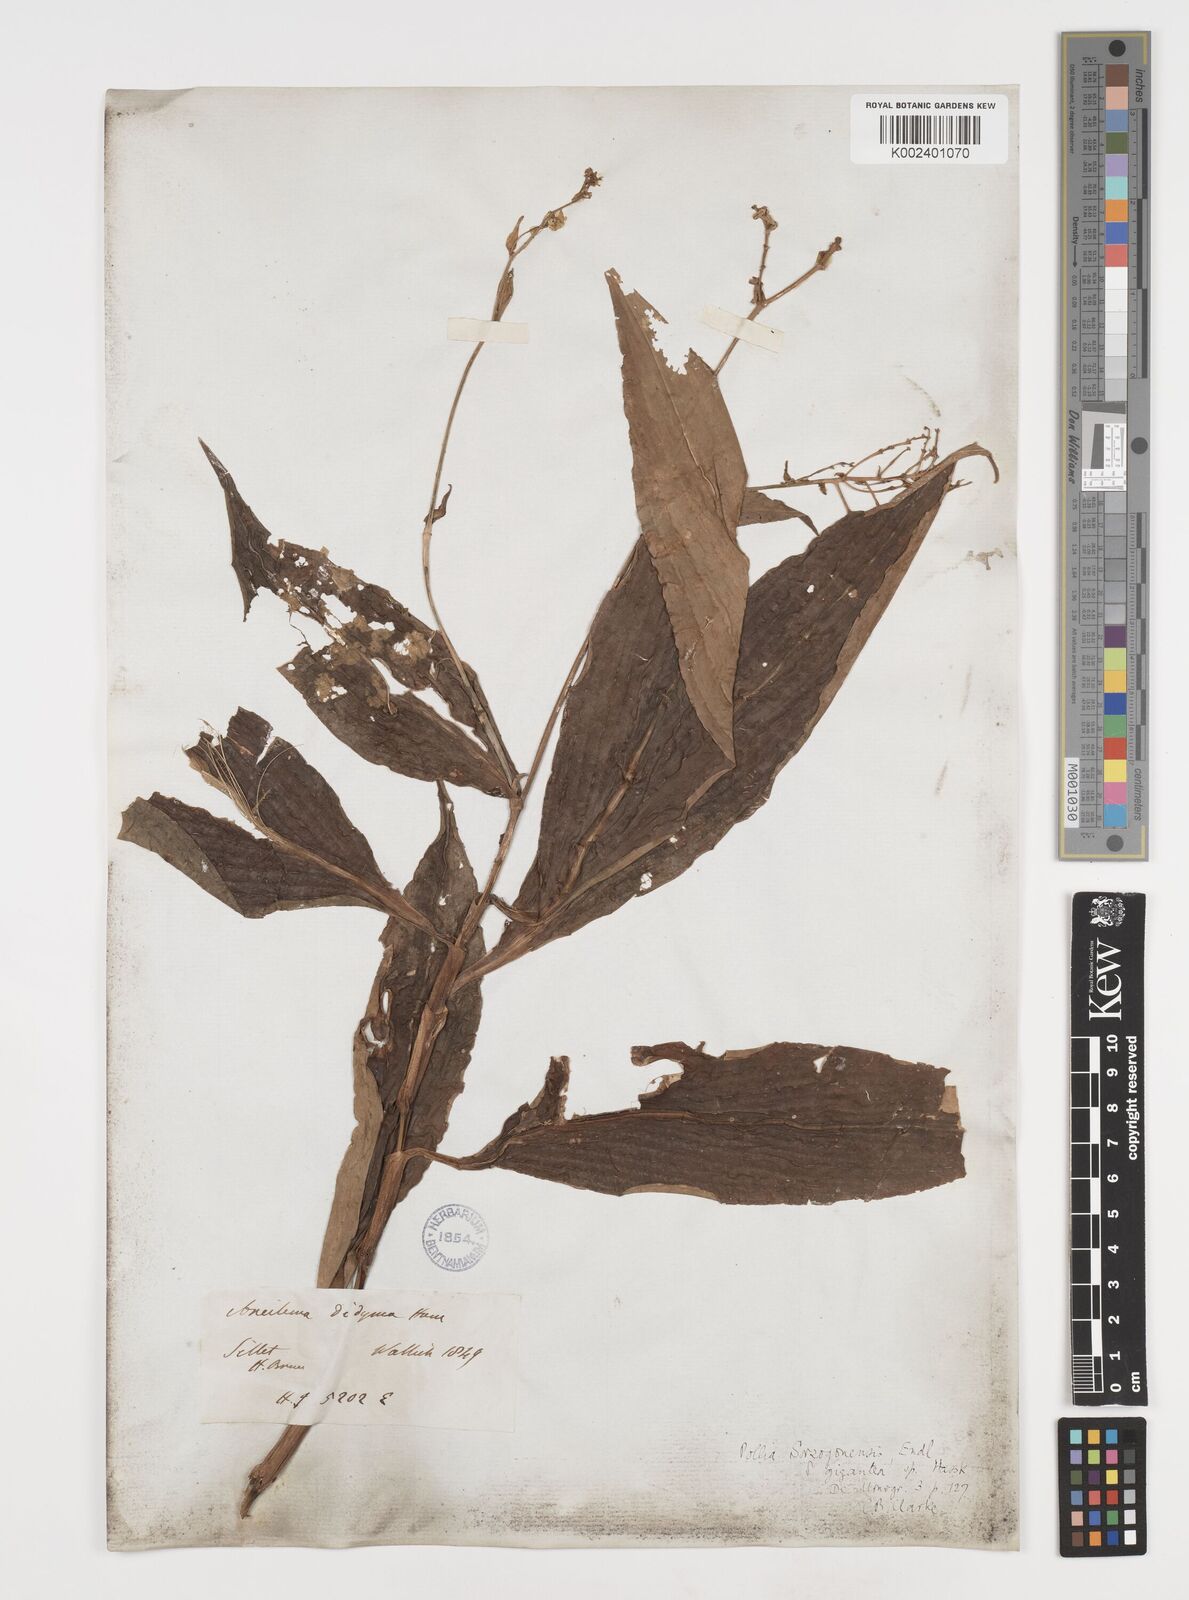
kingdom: Plantae
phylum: Tracheophyta
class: Liliopsida
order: Commelinales
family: Commelinaceae
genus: Pollia
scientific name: Pollia secundiflora
